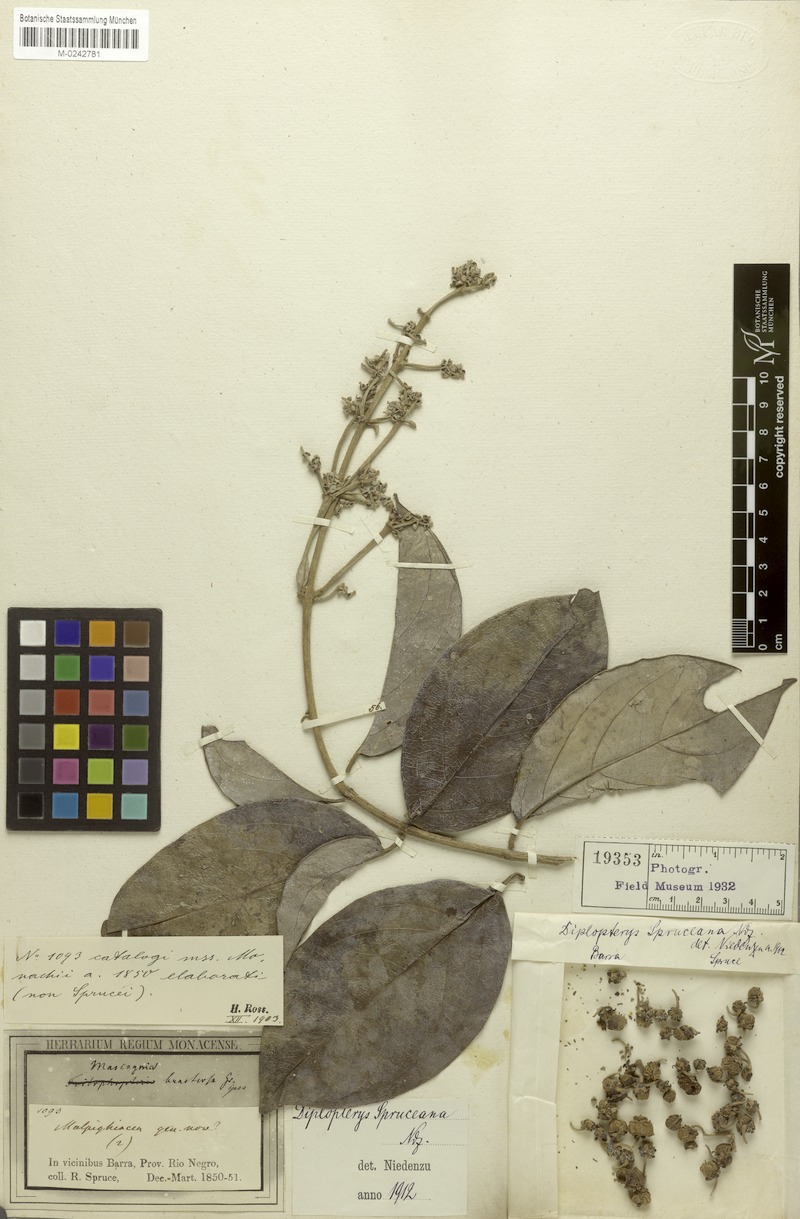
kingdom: Plantae
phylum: Tracheophyta
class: Magnoliopsida
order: Malpighiales
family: Malpighiaceae
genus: Malpighiodes
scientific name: Malpighiodes bracteosa
